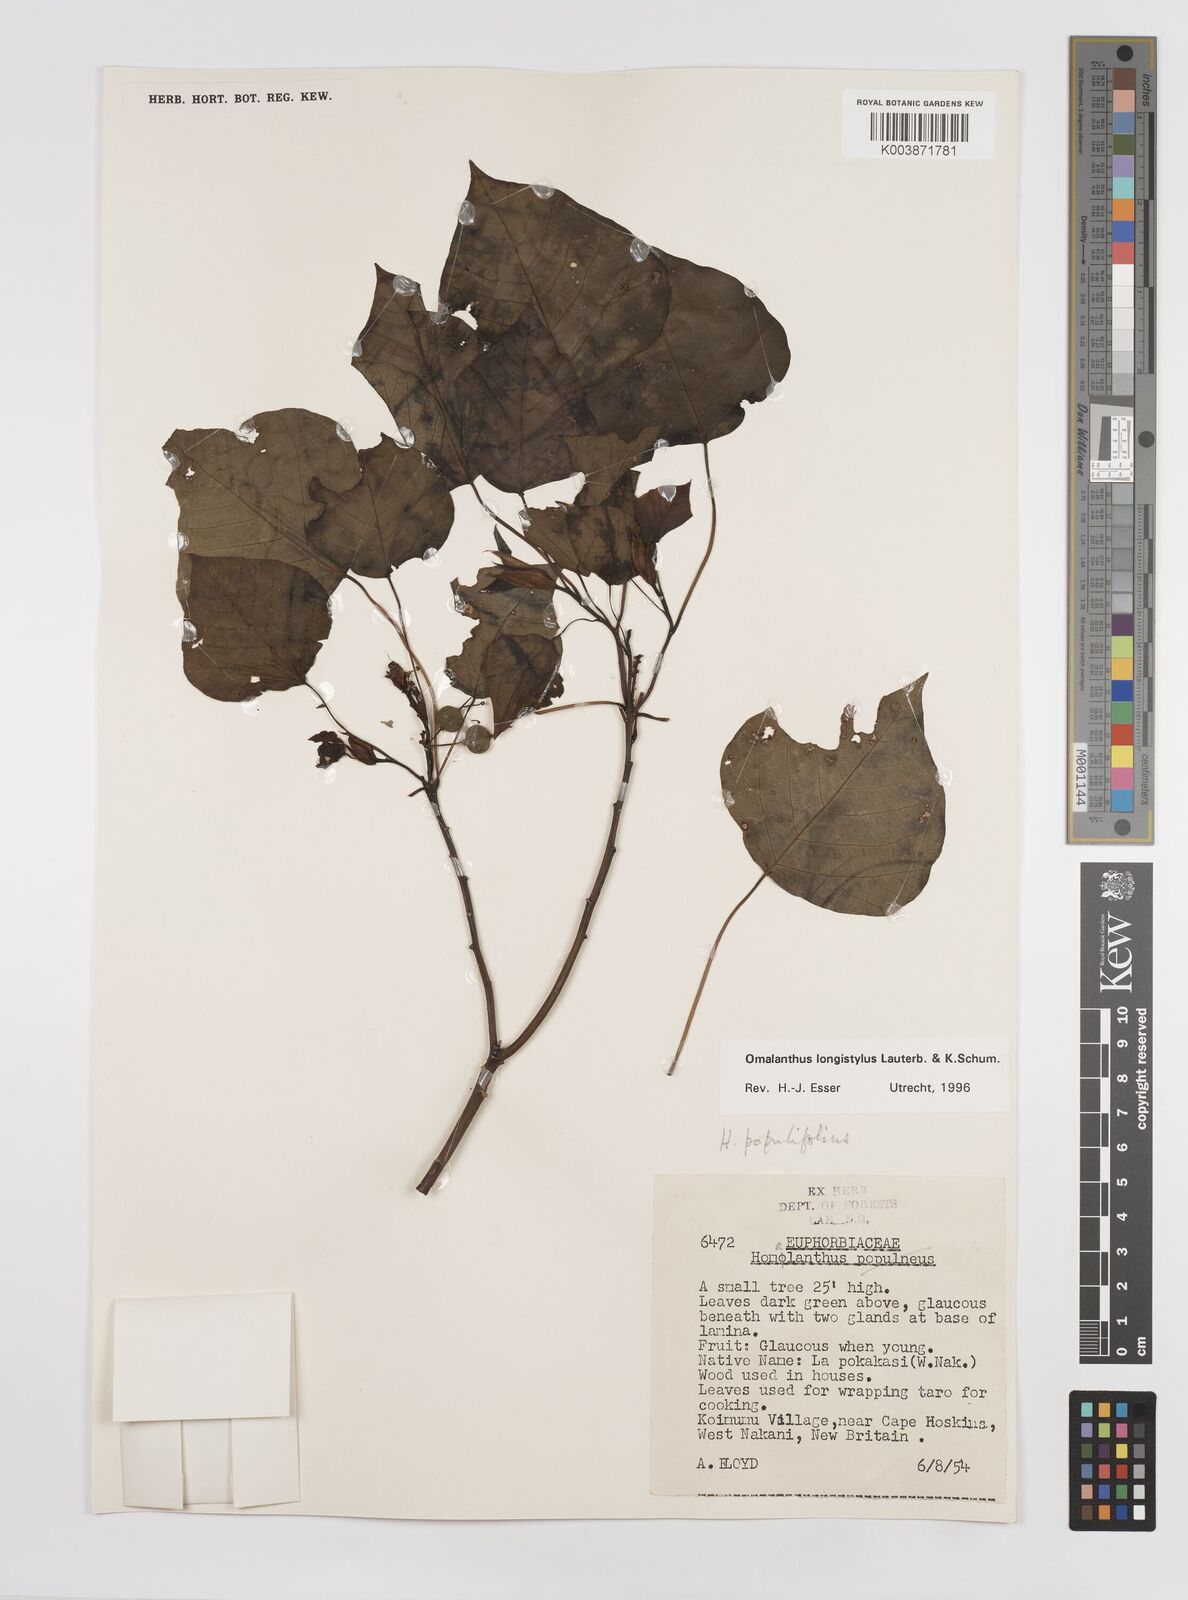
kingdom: Plantae
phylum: Tracheophyta
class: Magnoliopsida
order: Malpighiales
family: Euphorbiaceae
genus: Homalanthus
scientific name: Homalanthus longistylus
